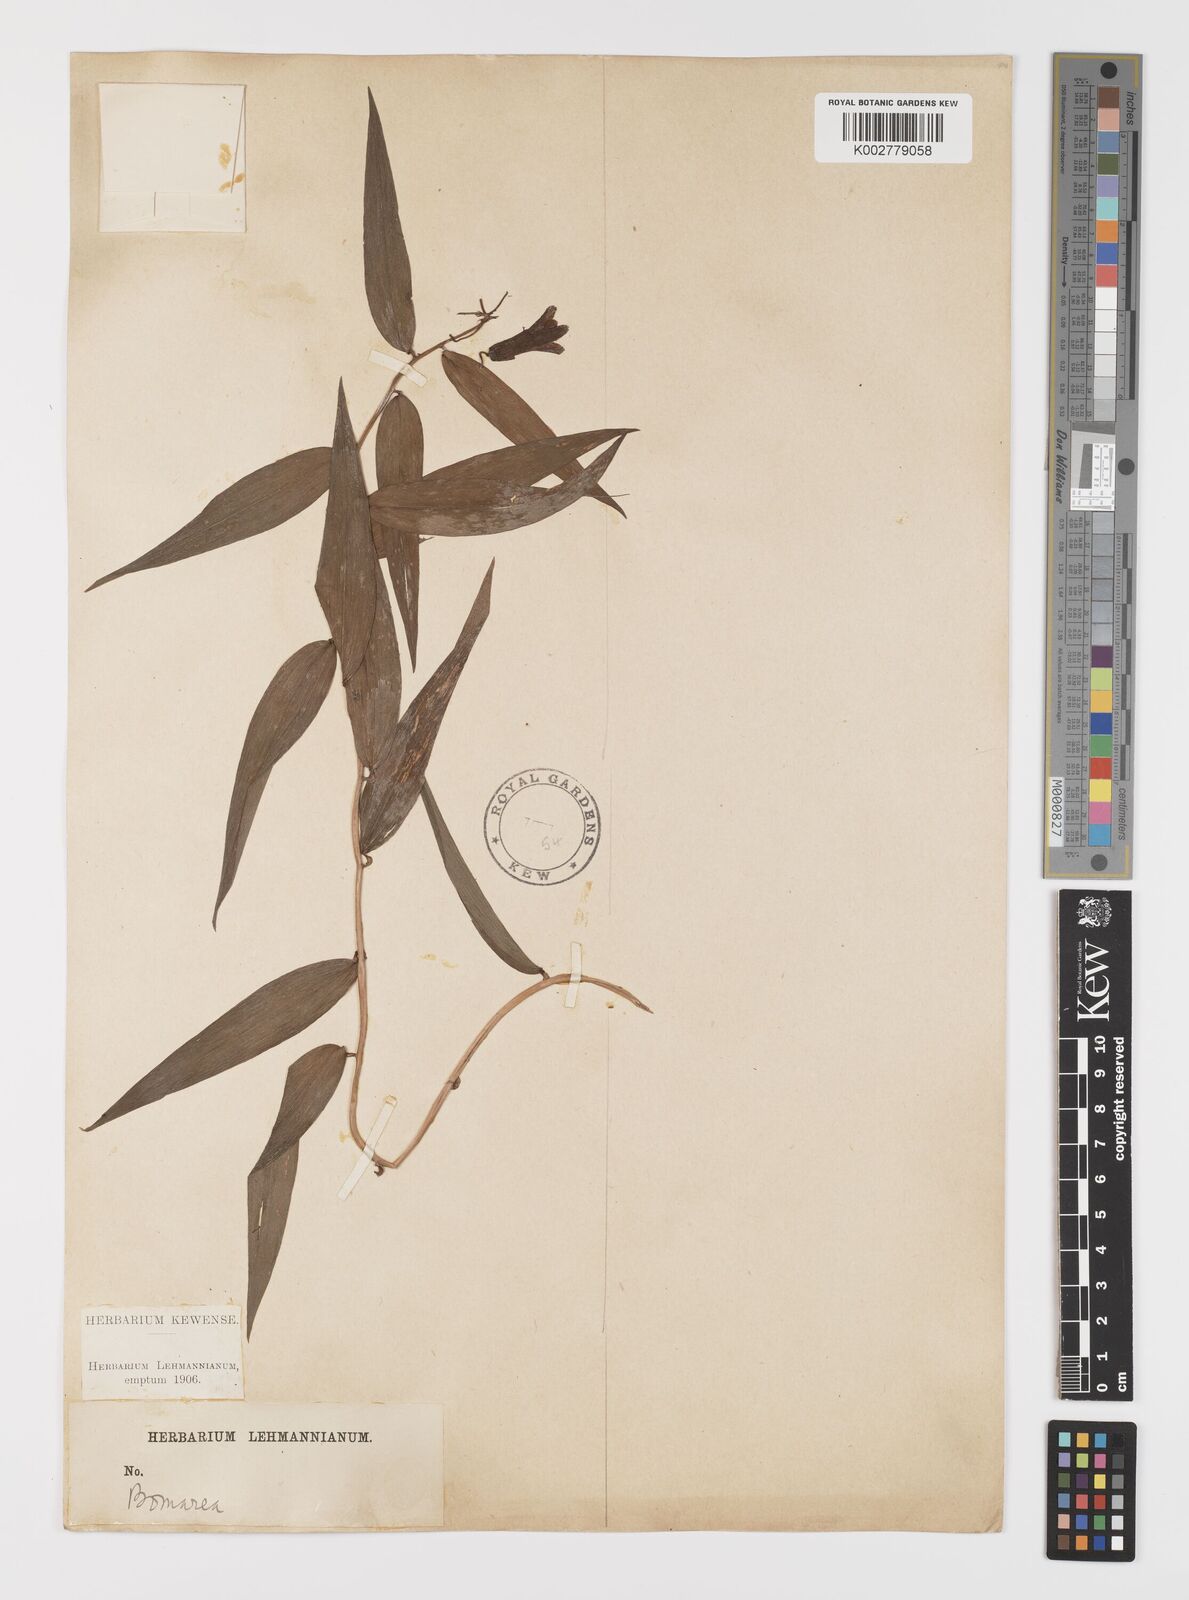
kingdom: Plantae
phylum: Tracheophyta
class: Liliopsida
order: Liliales
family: Alstroemeriaceae
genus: Bomarea
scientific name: Bomarea
